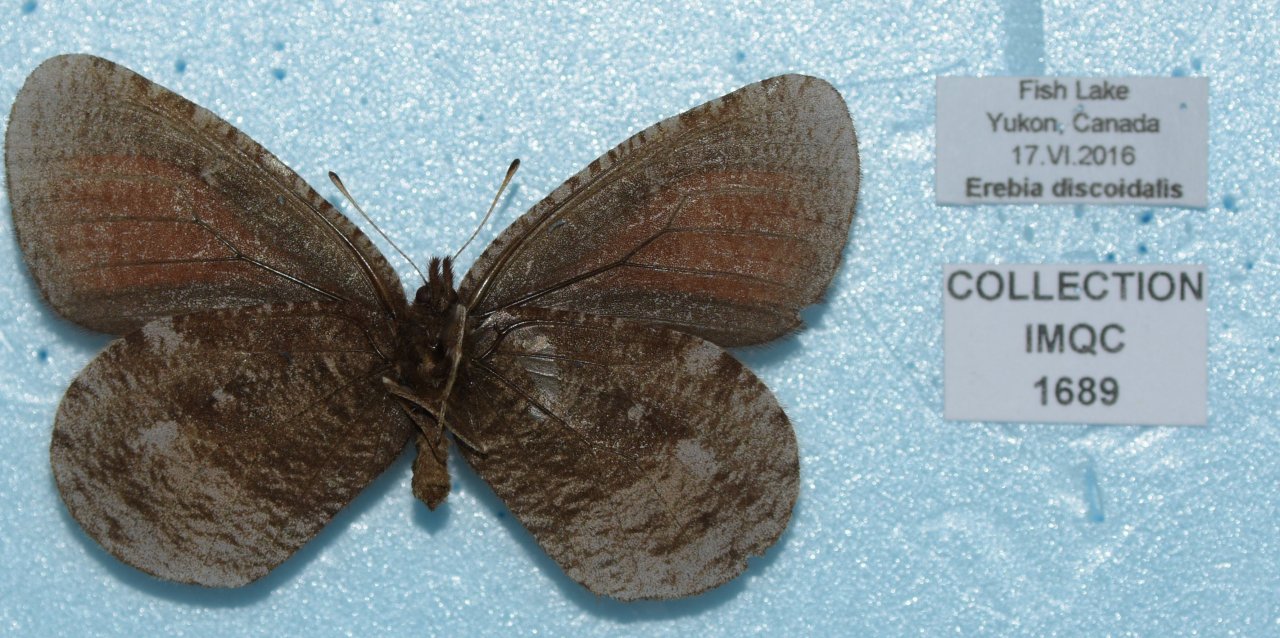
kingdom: Animalia
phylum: Arthropoda
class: Insecta
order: Lepidoptera
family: Nymphalidae
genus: Erebia
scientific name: Erebia discoidalis
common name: Red-disked Alpine
